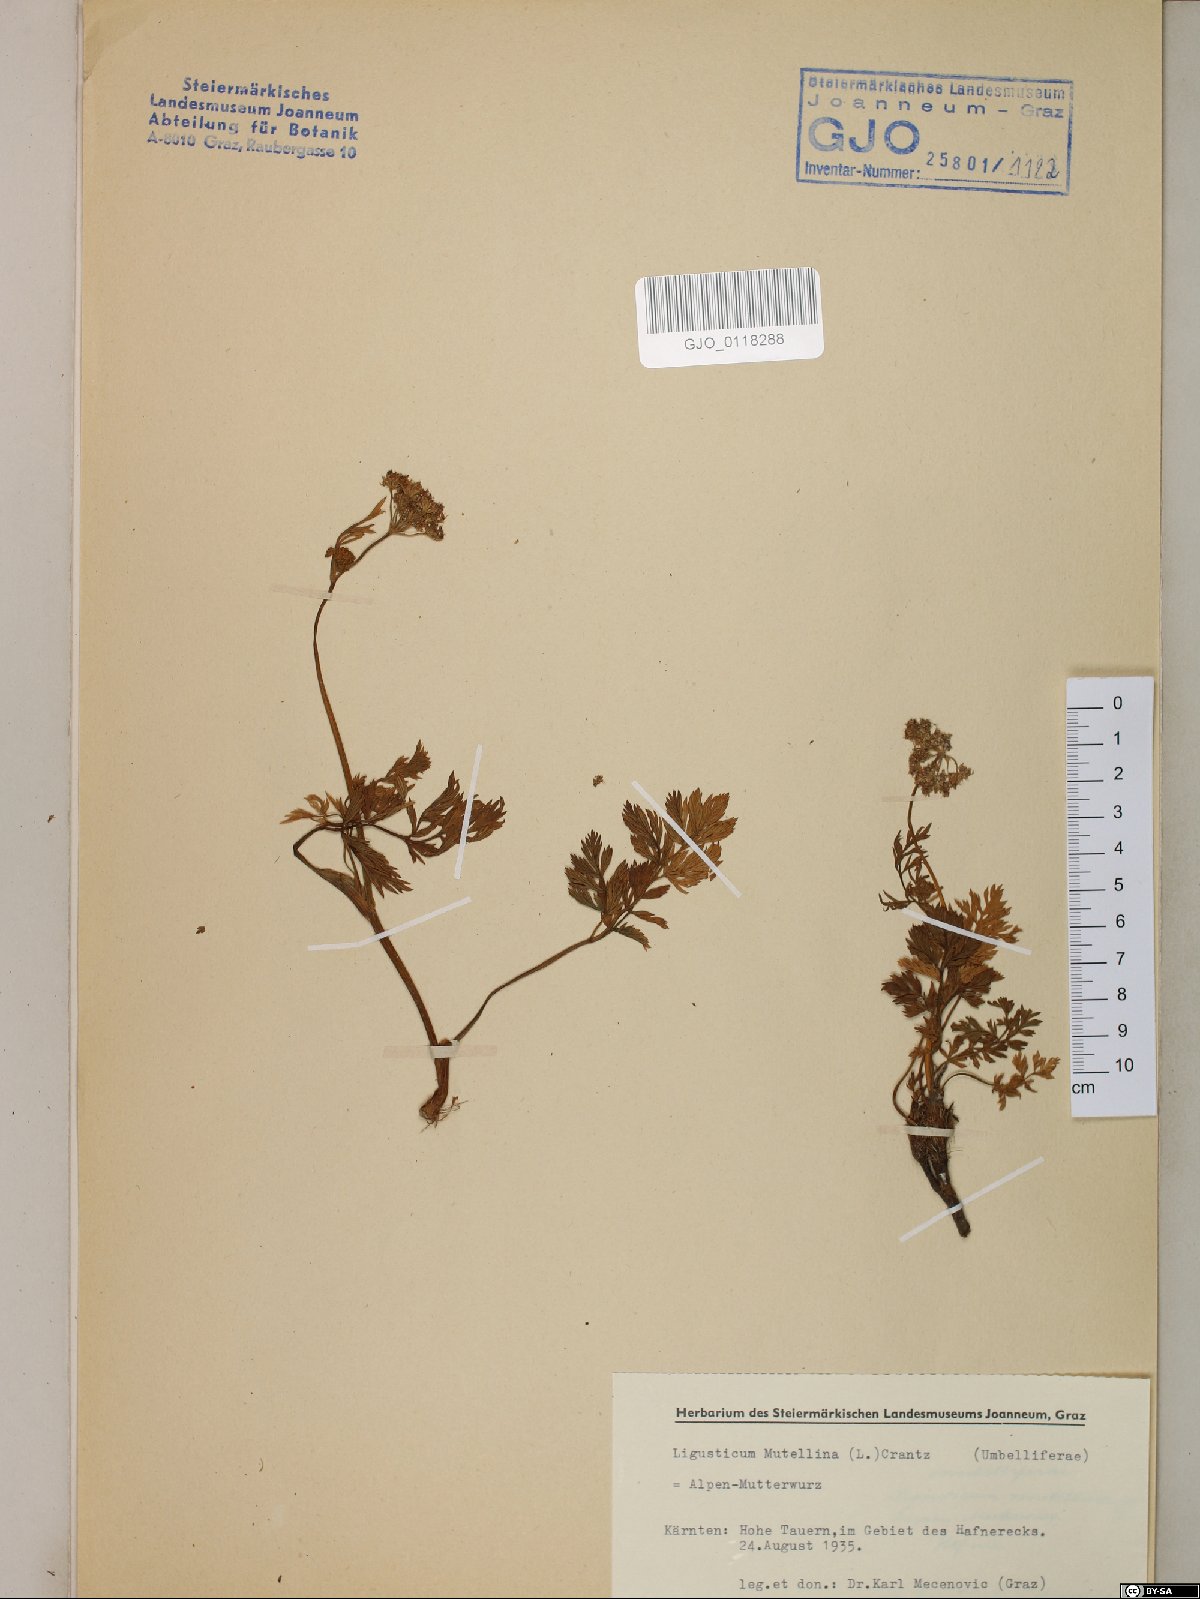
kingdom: Plantae
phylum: Tracheophyta
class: Magnoliopsida
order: Apiales
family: Apiaceae
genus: Mutellina
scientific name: Mutellina adonidifolia
